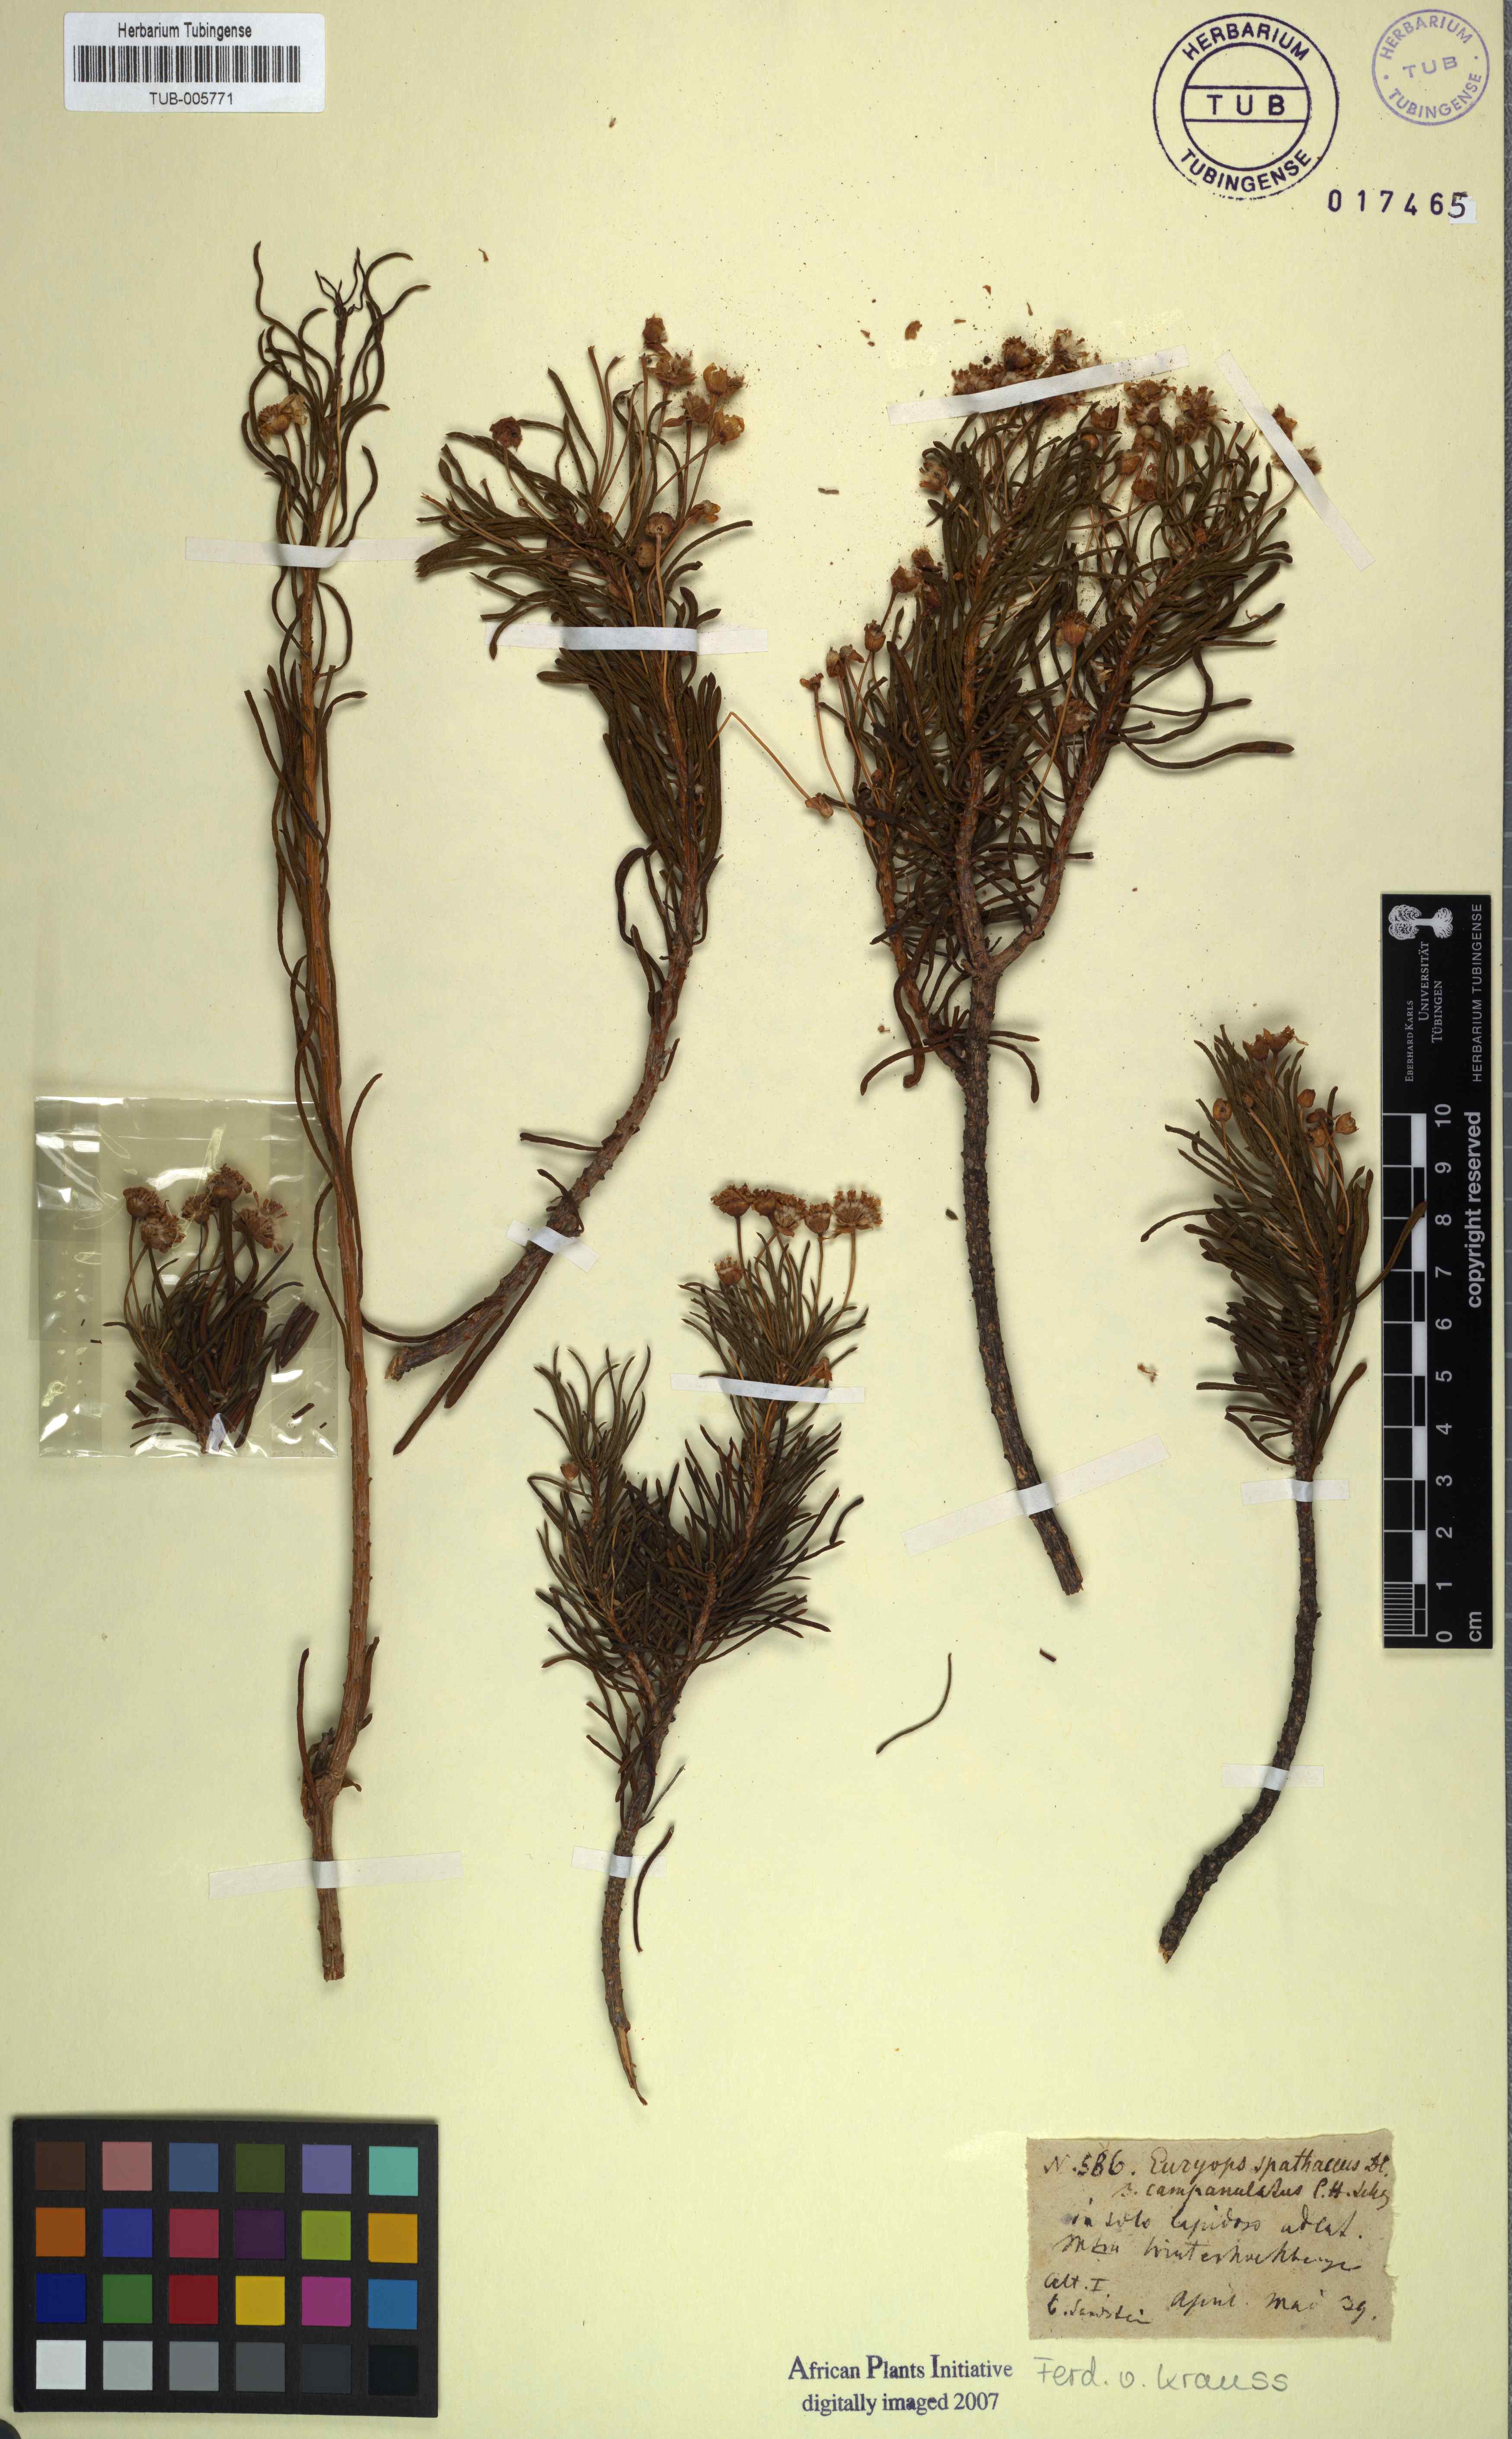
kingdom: Plantae
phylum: Tracheophyta
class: Magnoliopsida
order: Asterales
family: Asteraceae
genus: Euryops
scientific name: Euryops spathaceus
